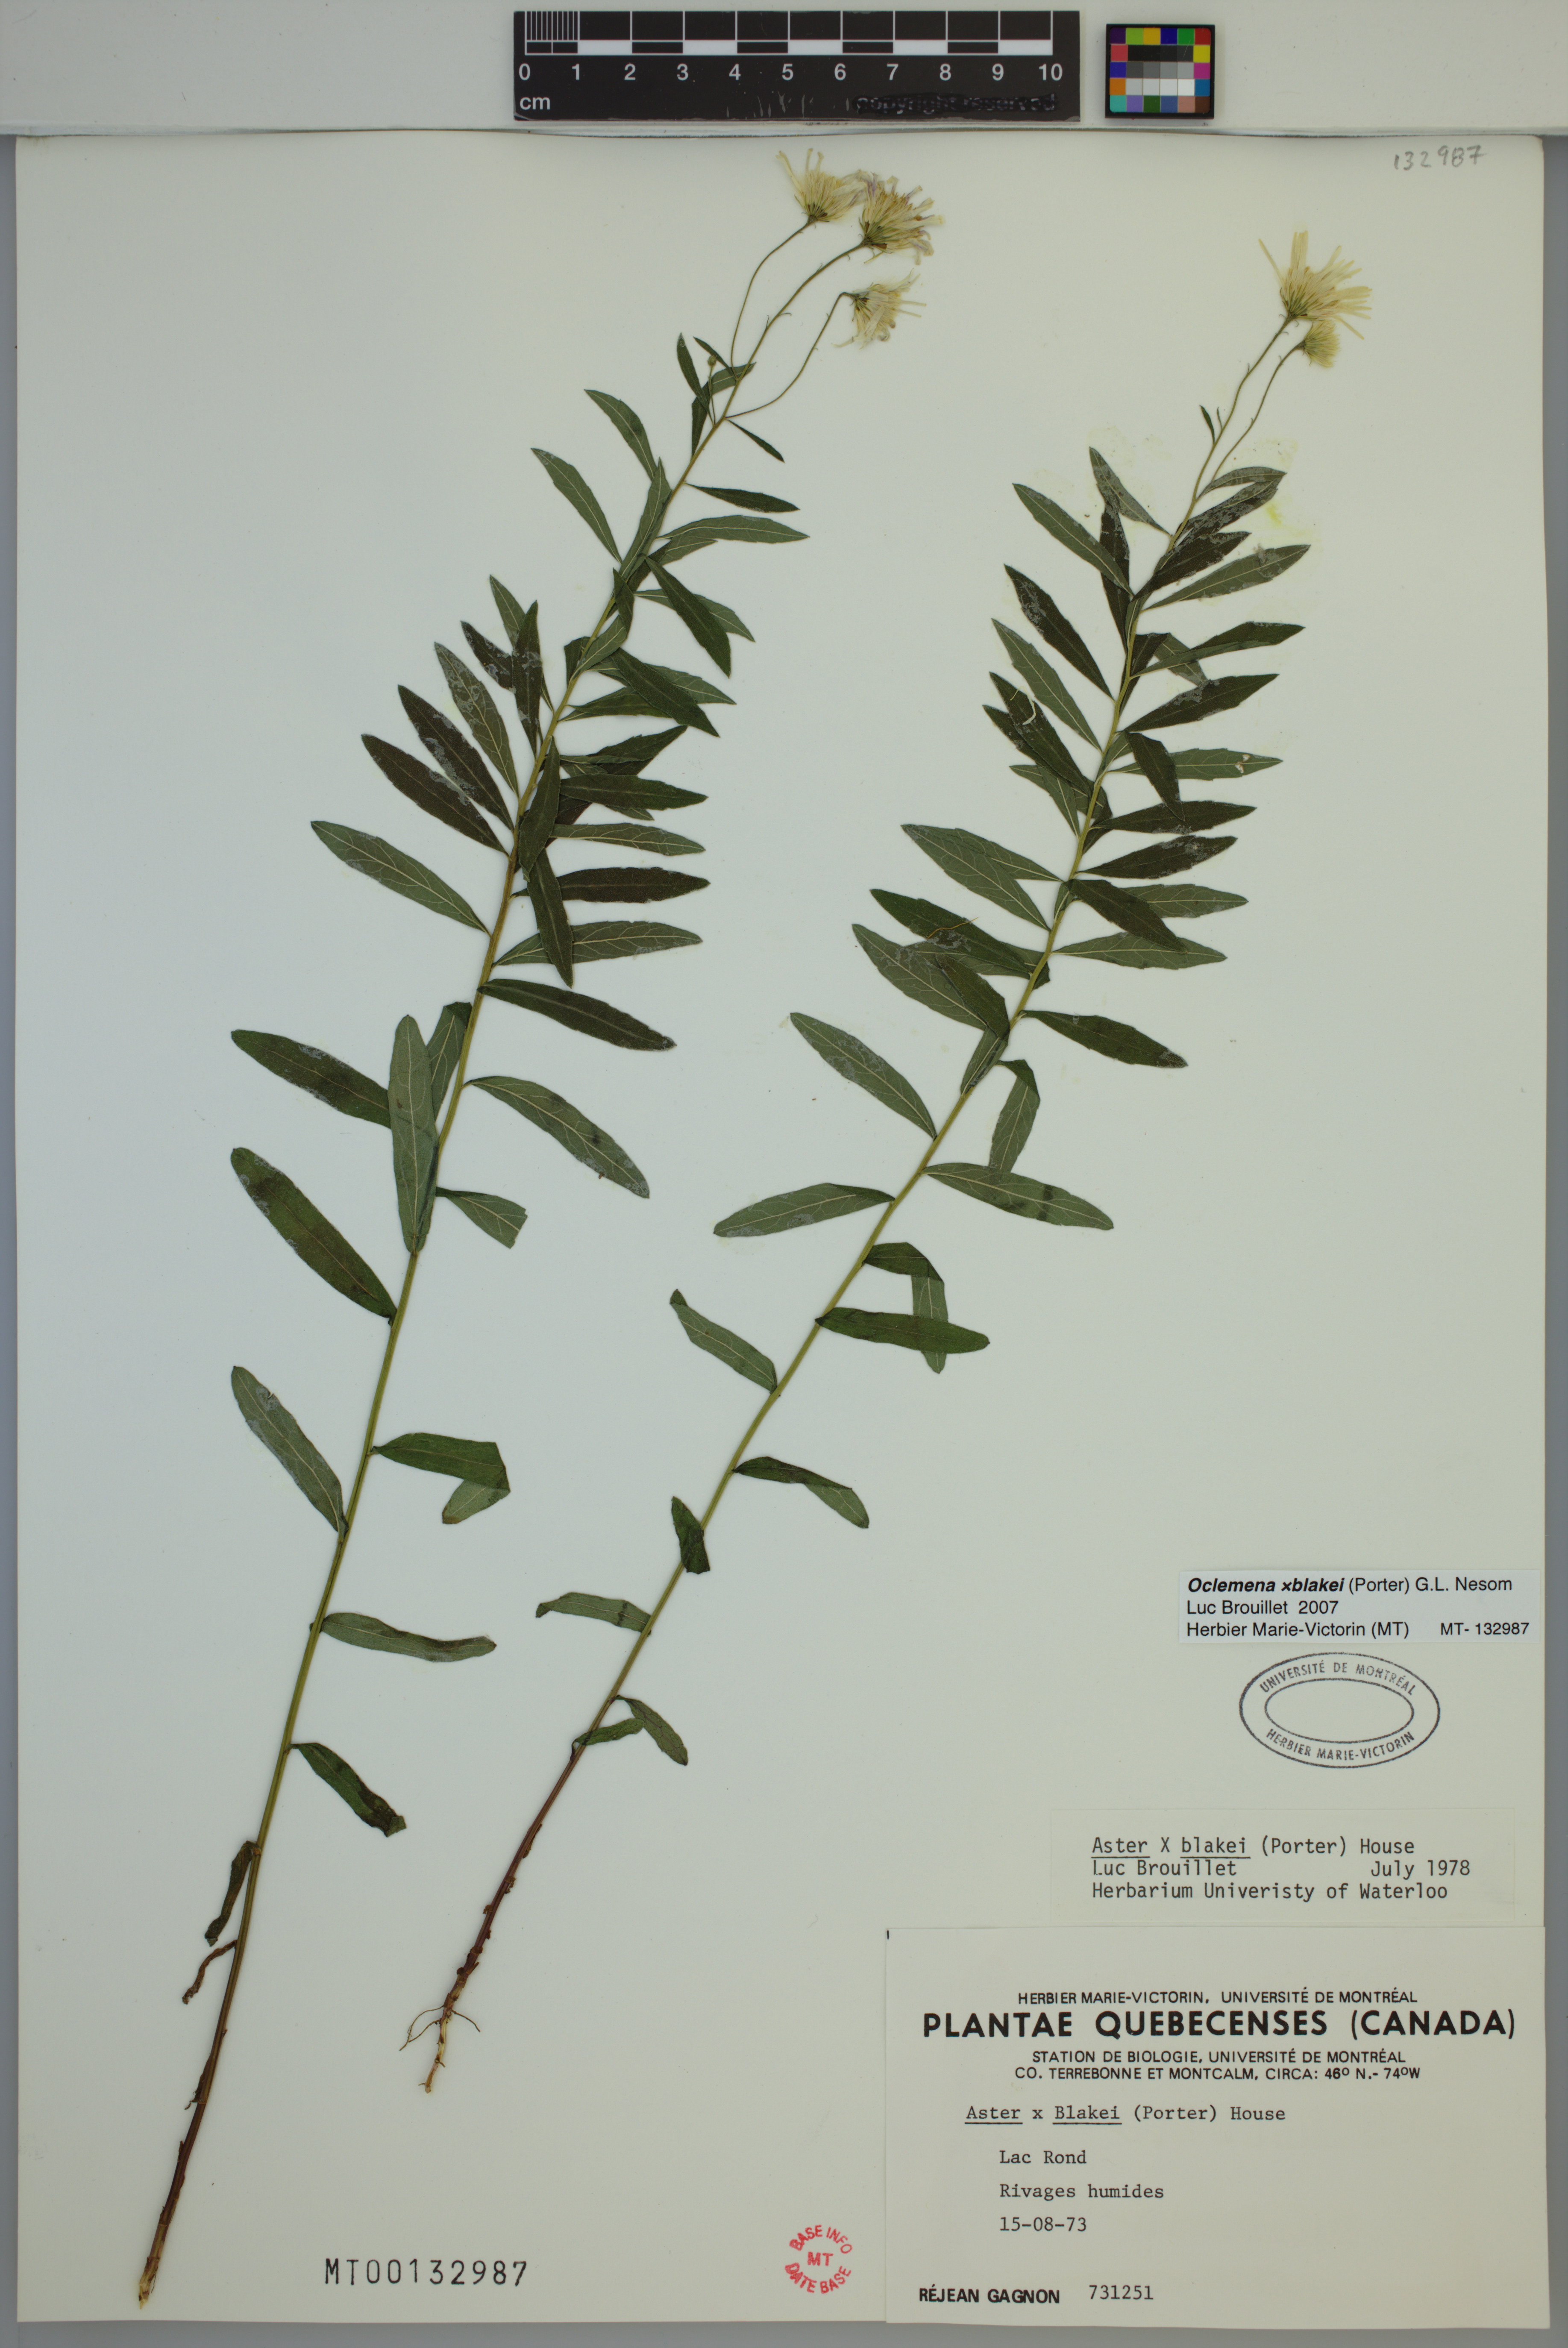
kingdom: Plantae
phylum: Tracheophyta
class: Magnoliopsida
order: Asterales
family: Asteraceae
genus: Oclemena
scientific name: Oclemena blakei
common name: Blake's aster
